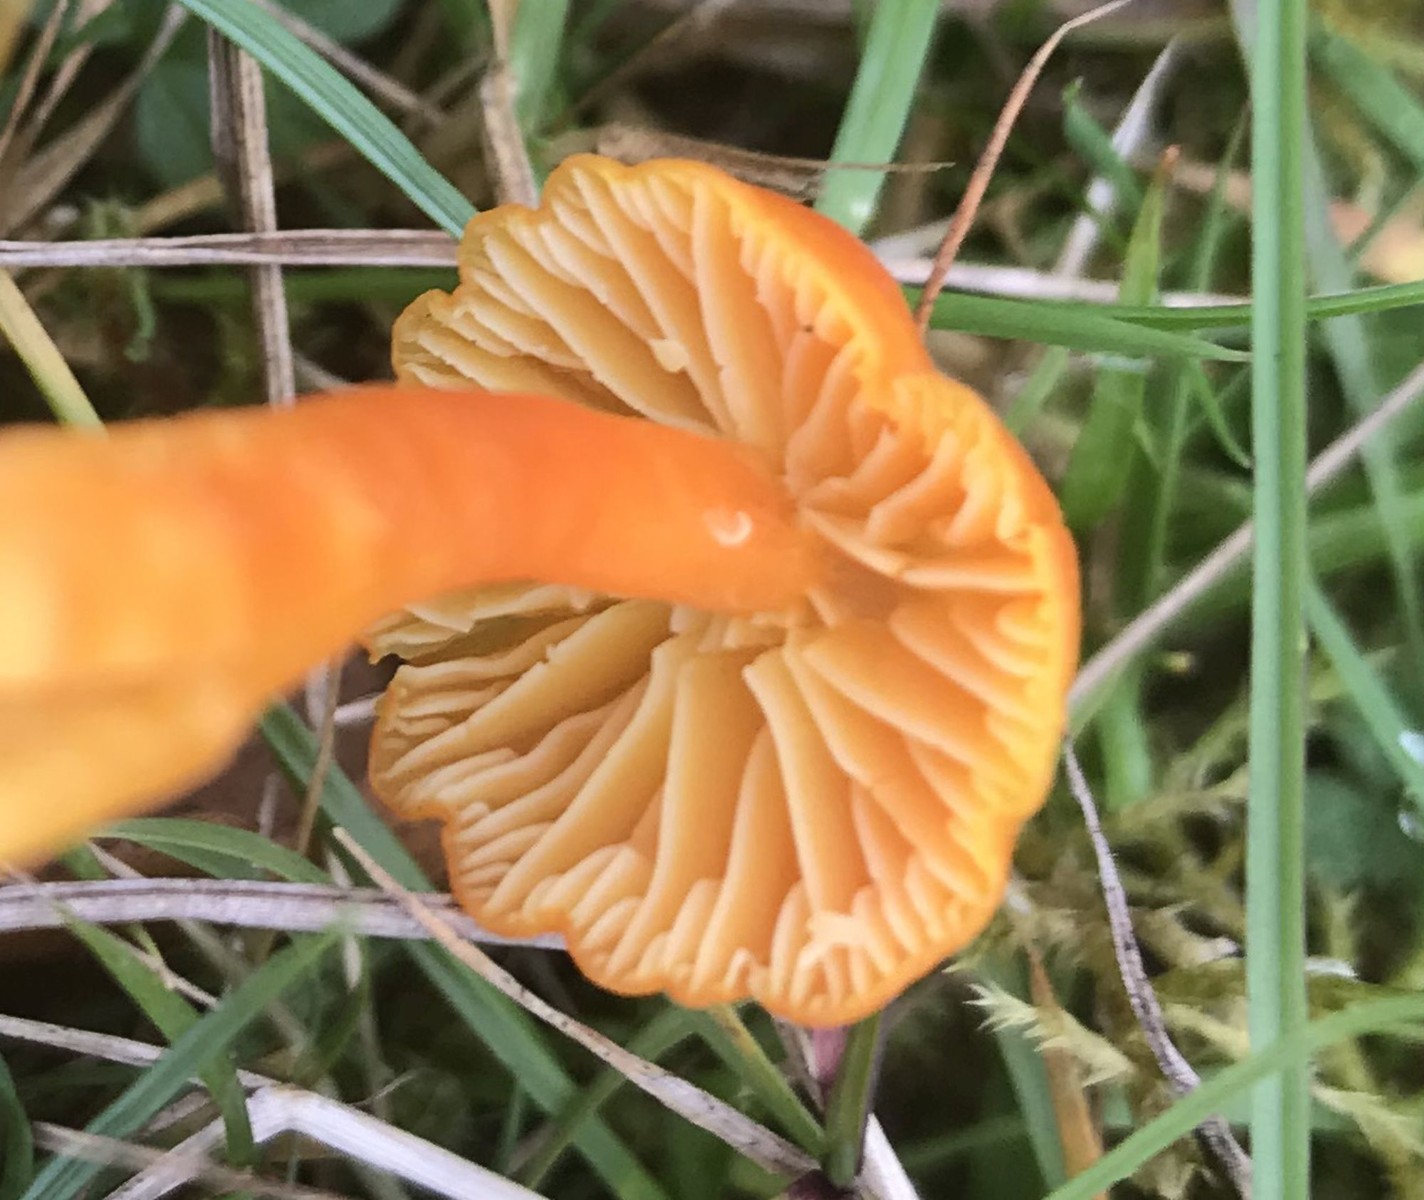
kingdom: Fungi
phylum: Basidiomycota
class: Agaricomycetes
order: Agaricales
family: Hygrophoraceae
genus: Hygrocybe
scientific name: Hygrocybe reidii
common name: honning-vokshat
